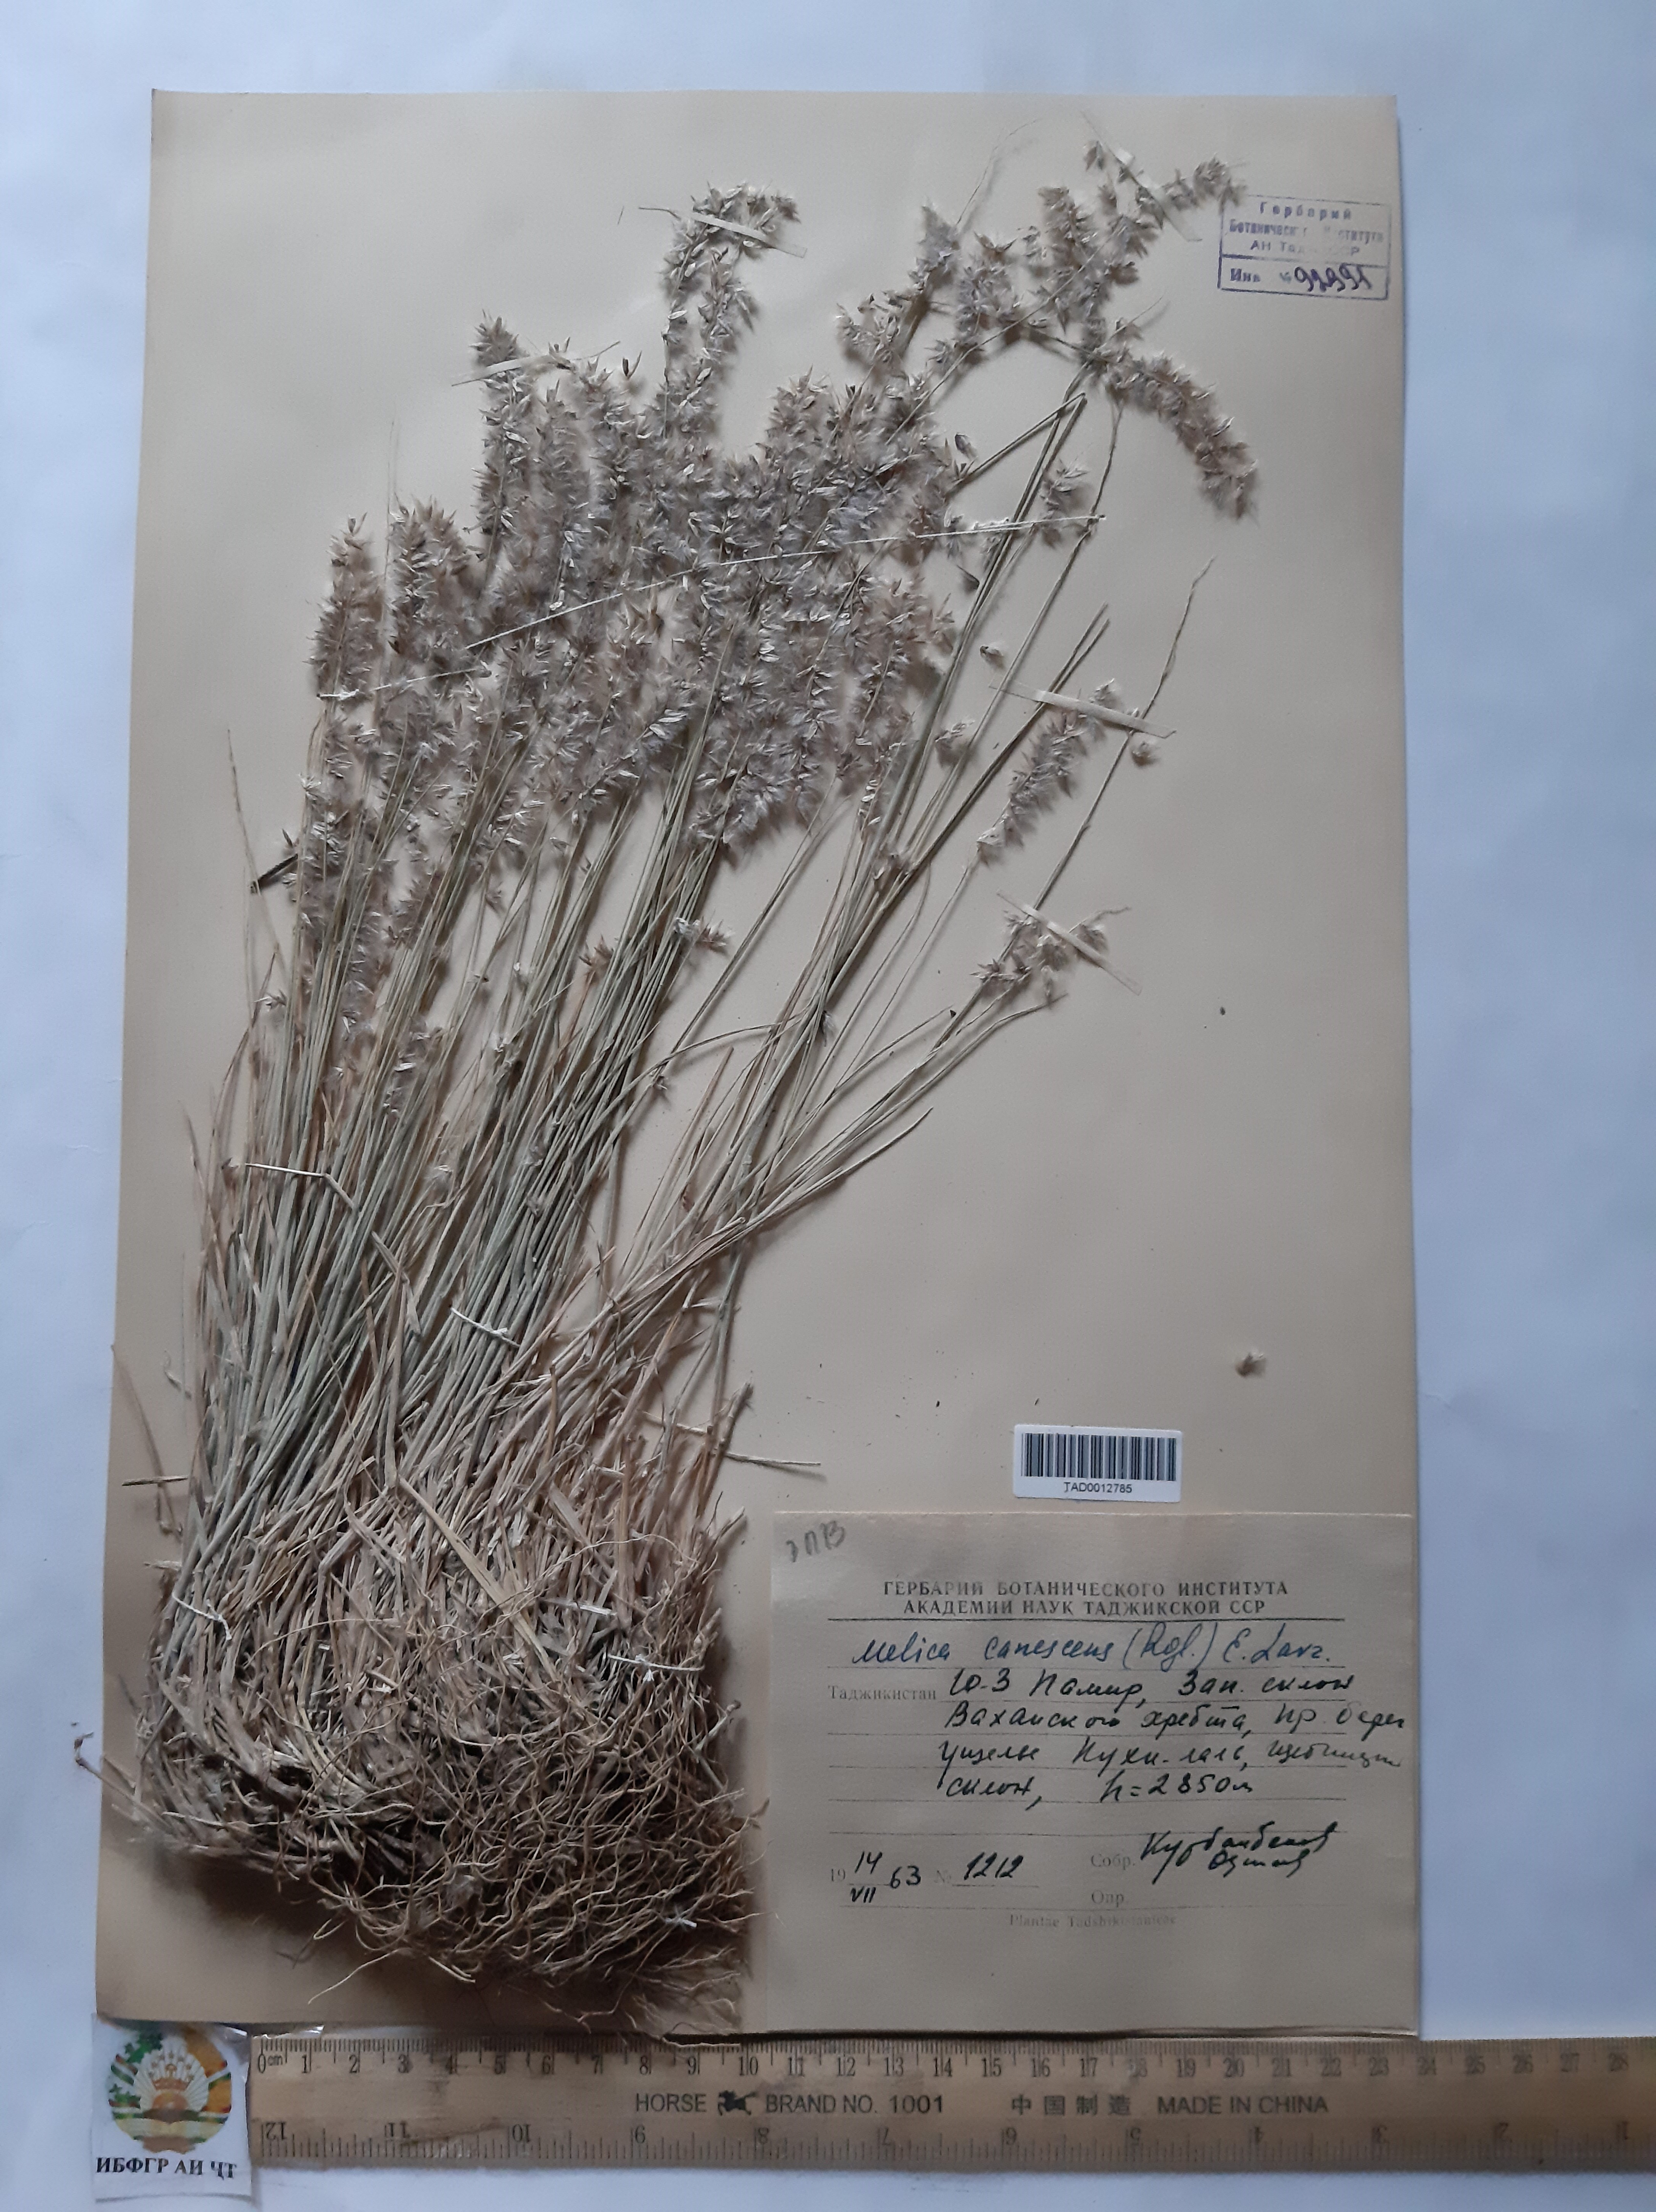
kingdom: Plantae
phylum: Tracheophyta
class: Liliopsida
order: Poales
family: Poaceae
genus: Melica
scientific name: Melica persica
